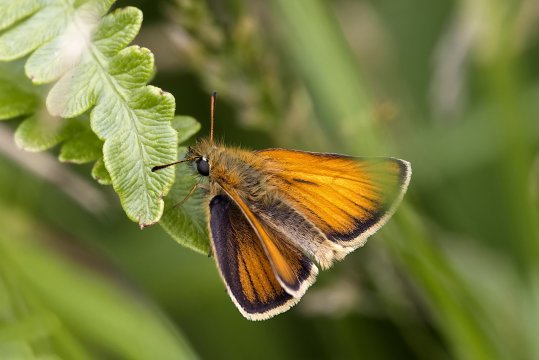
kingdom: Animalia
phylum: Arthropoda
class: Insecta
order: Lepidoptera
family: Hesperiidae
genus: Thymelicus
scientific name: Thymelicus lineola
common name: European Skipper
